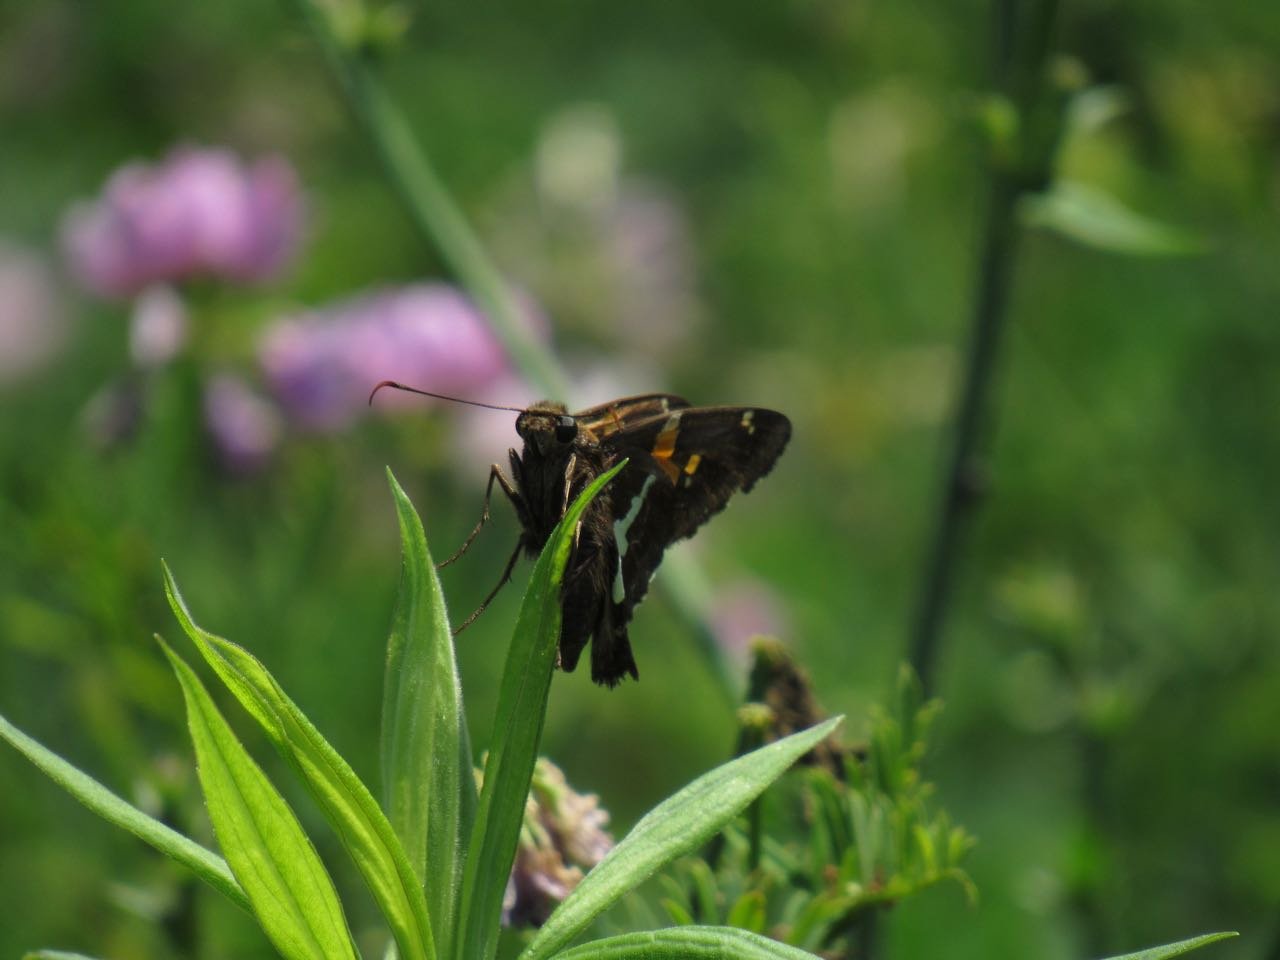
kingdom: Animalia
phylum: Arthropoda
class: Insecta
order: Lepidoptera
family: Hesperiidae
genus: Epargyreus
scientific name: Epargyreus clarus
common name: Silver-spotted Skipper
